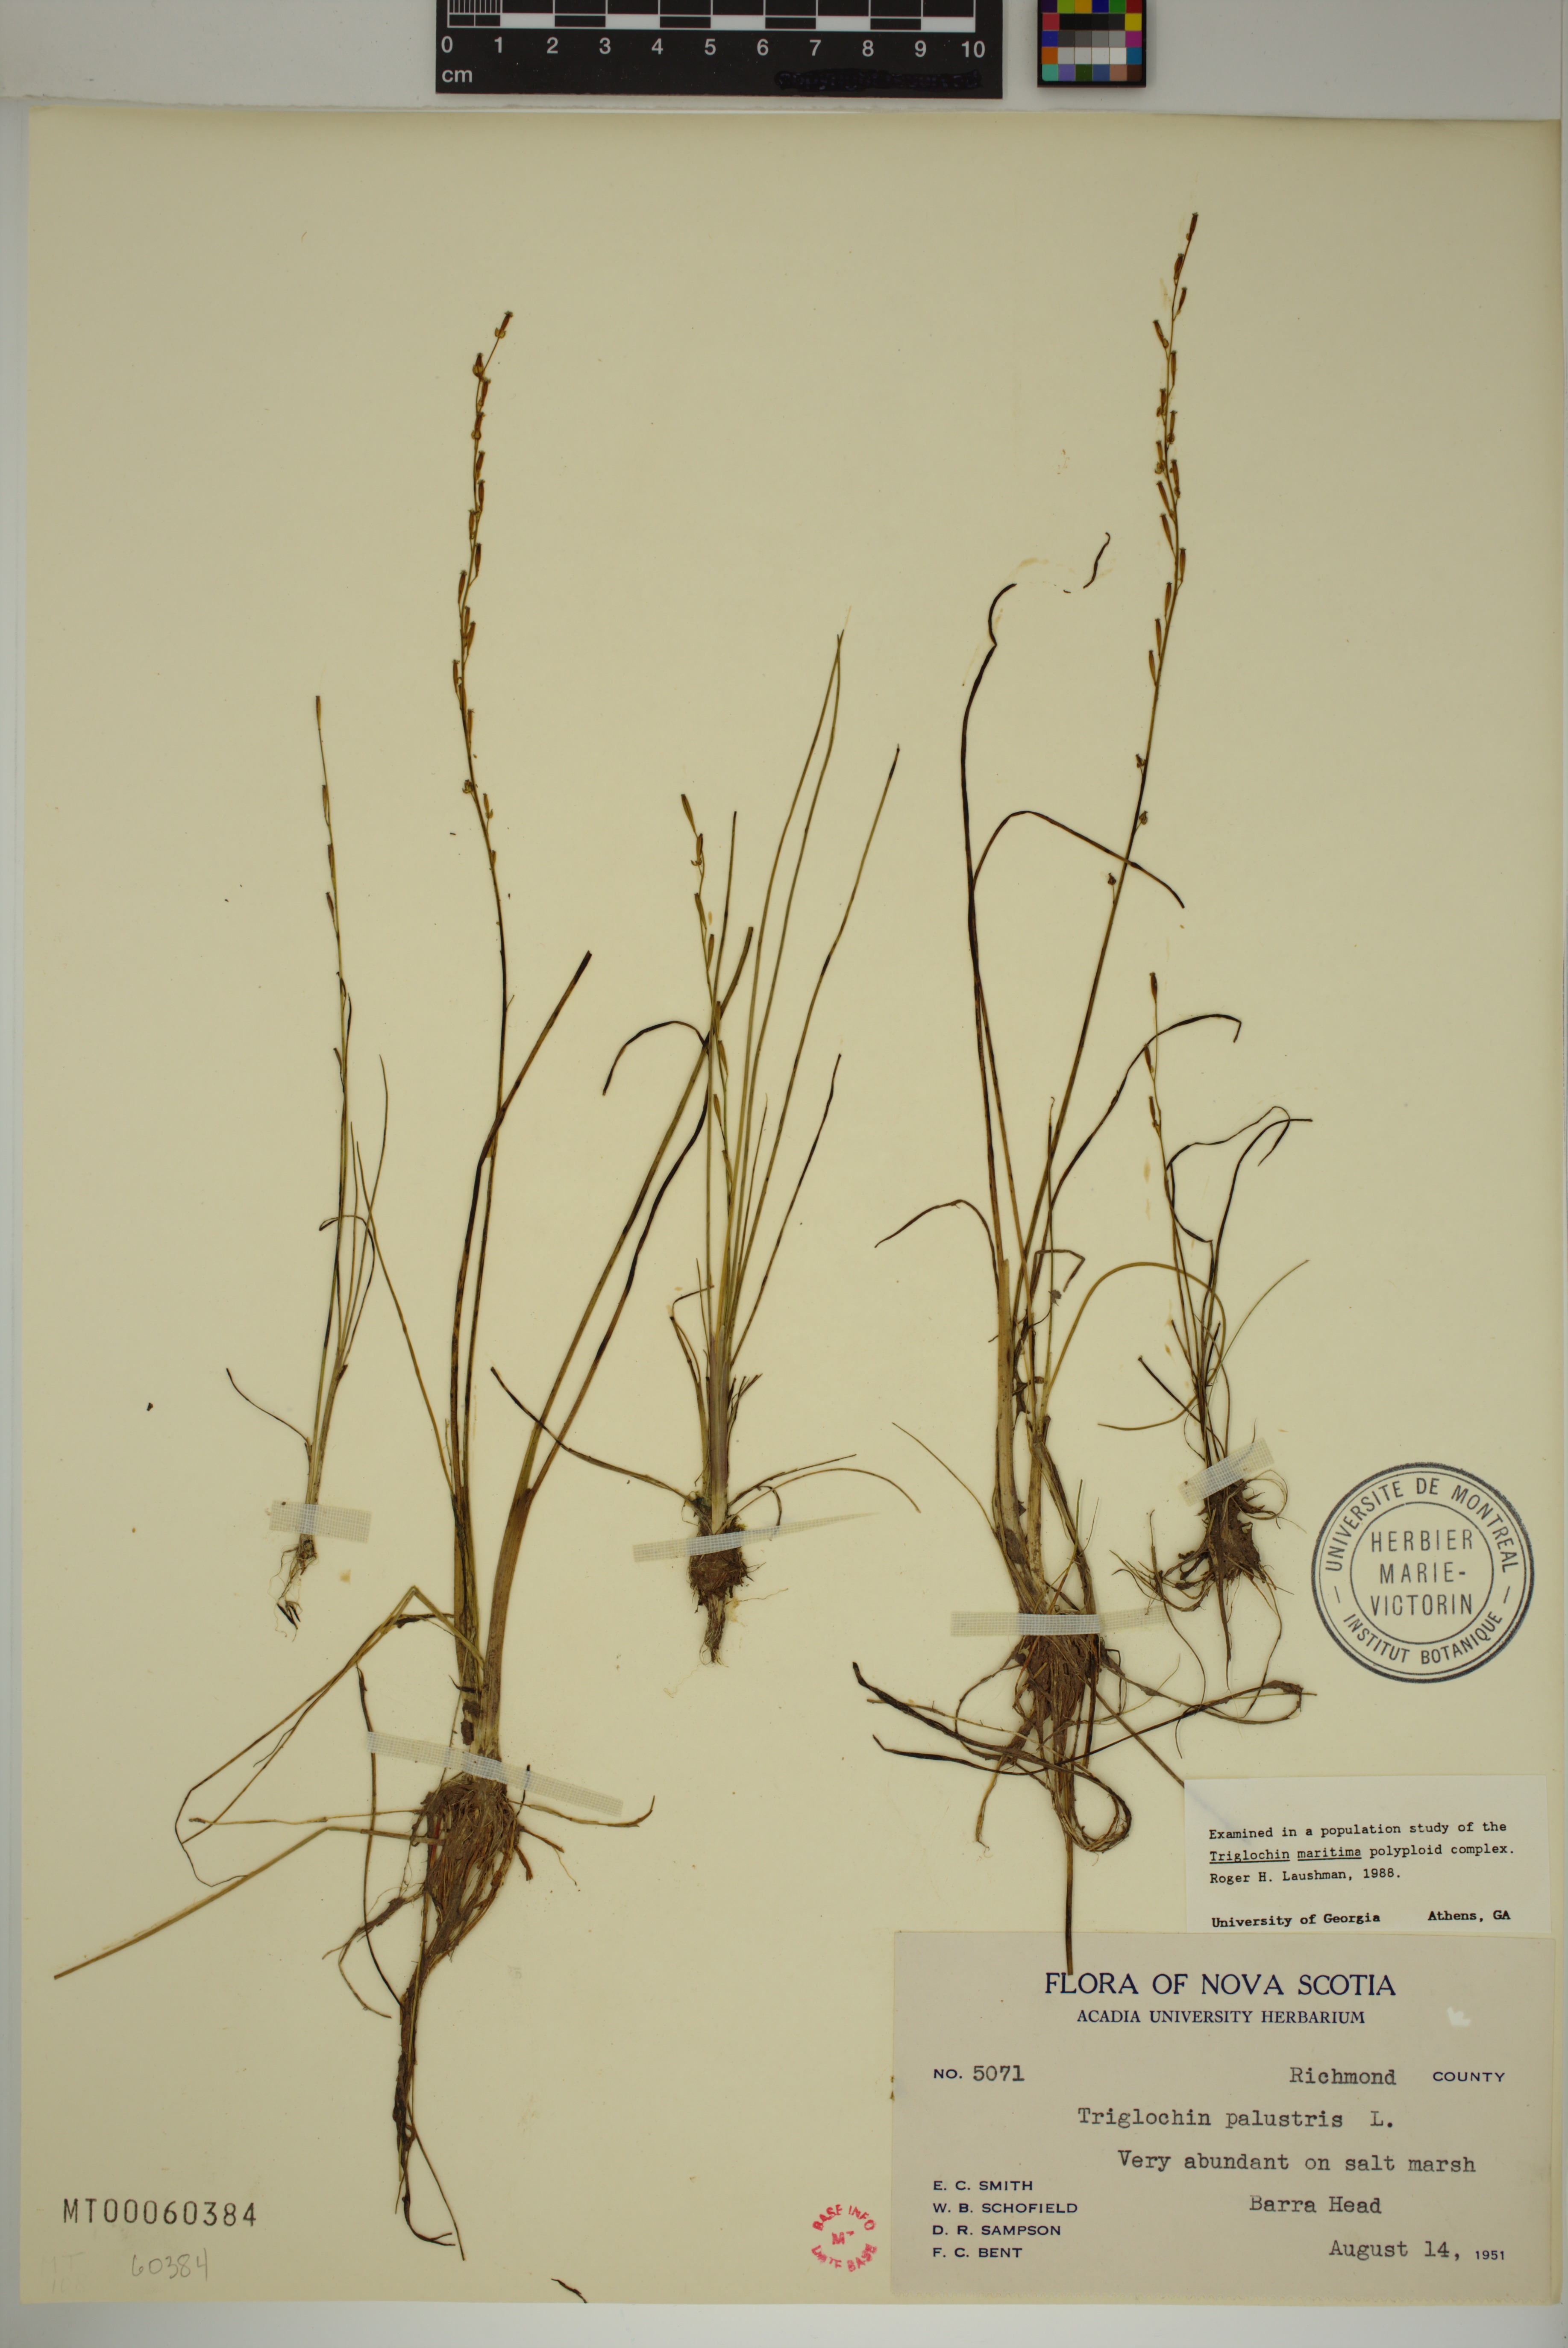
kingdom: Plantae
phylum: Tracheophyta
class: Liliopsida
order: Alismatales
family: Juncaginaceae
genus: Triglochin
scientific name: Triglochin palustris
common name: Marsh arrowgrass
